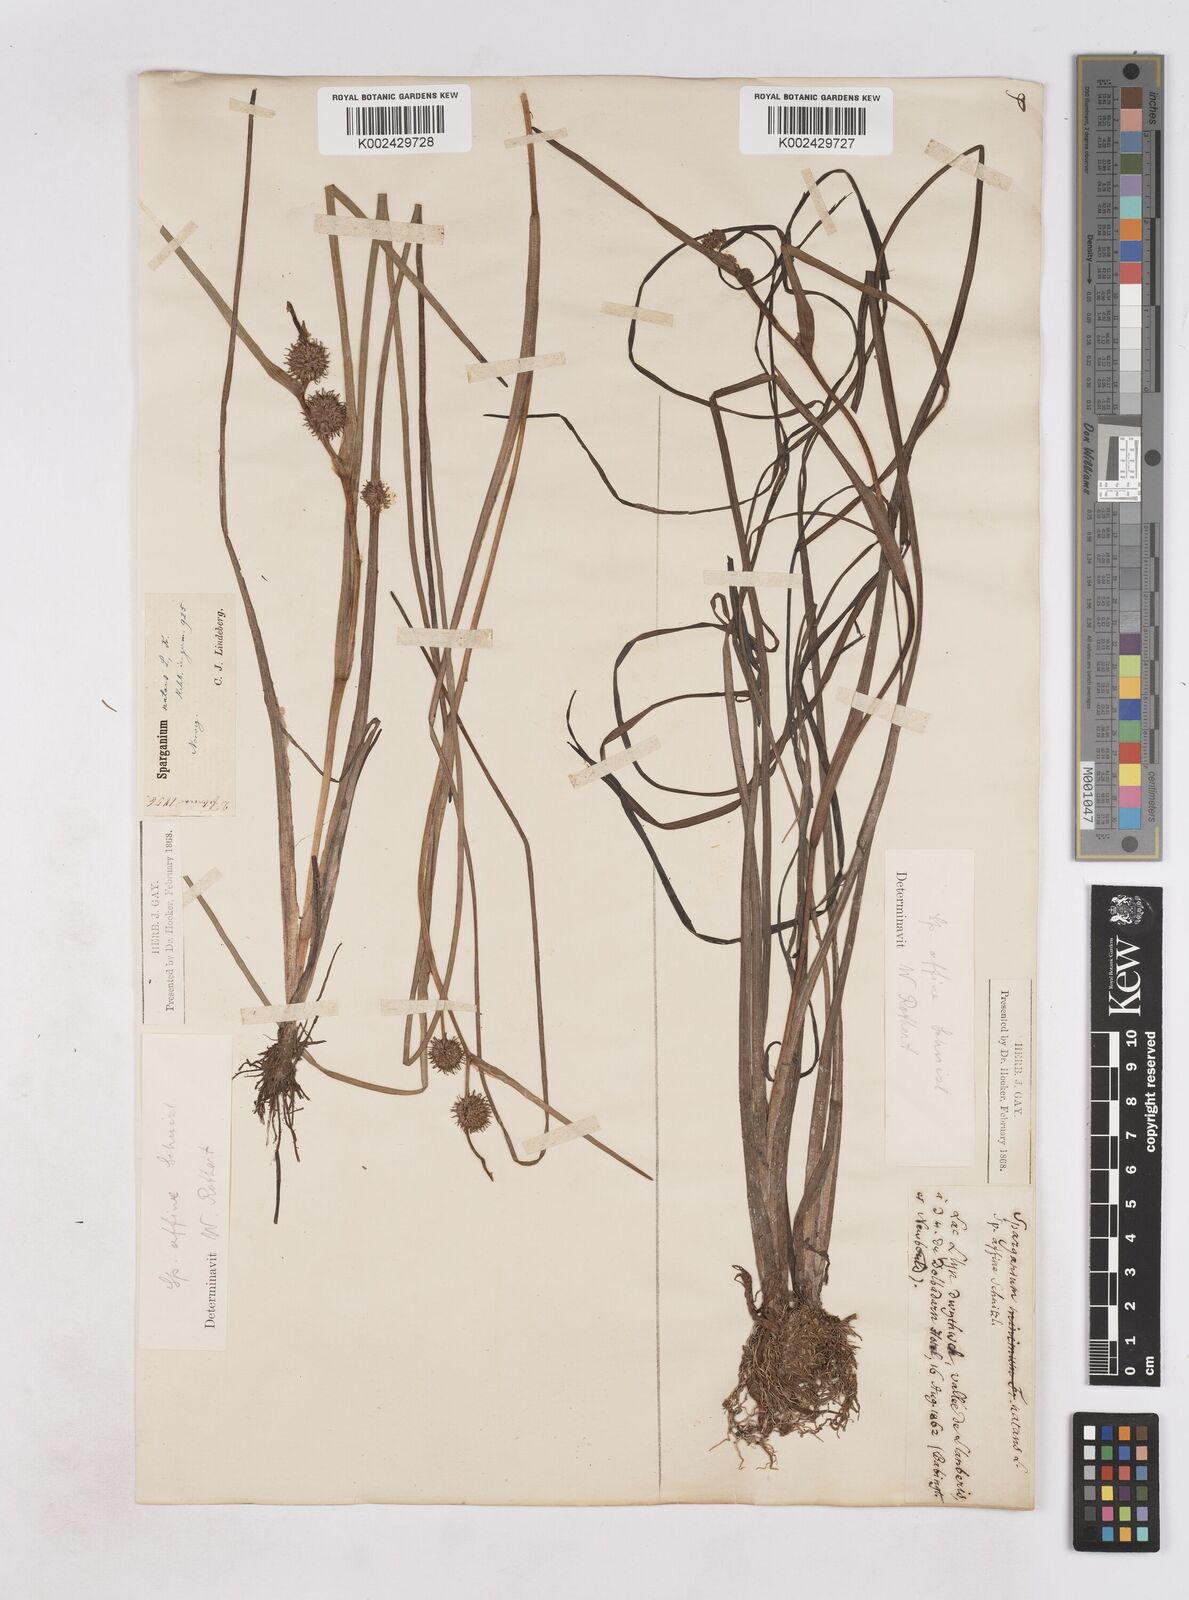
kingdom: Plantae
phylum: Tracheophyta
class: Liliopsida
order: Poales
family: Typhaceae
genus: Sparganium
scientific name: Sparganium angustifolium
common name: Floating bur-reed
